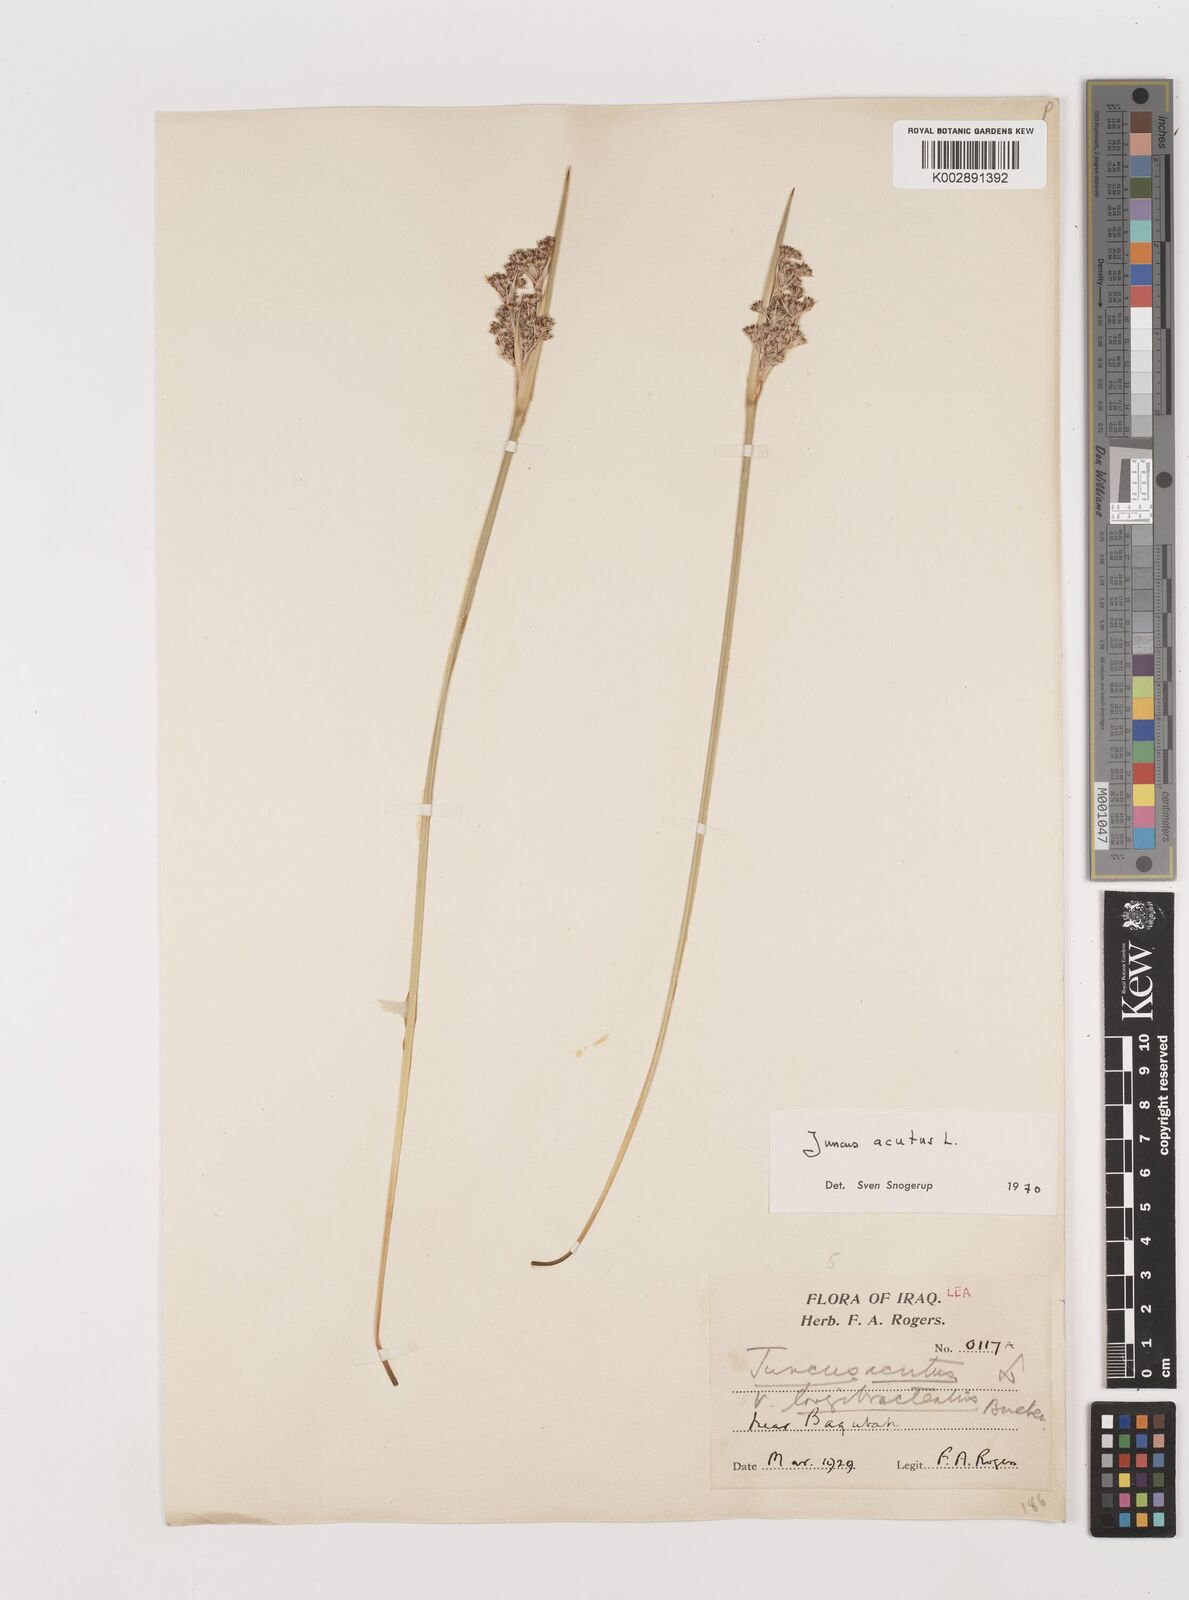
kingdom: Plantae
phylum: Tracheophyta
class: Liliopsida
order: Poales
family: Juncaceae
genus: Juncus
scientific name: Juncus acutus
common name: Sharp rush
